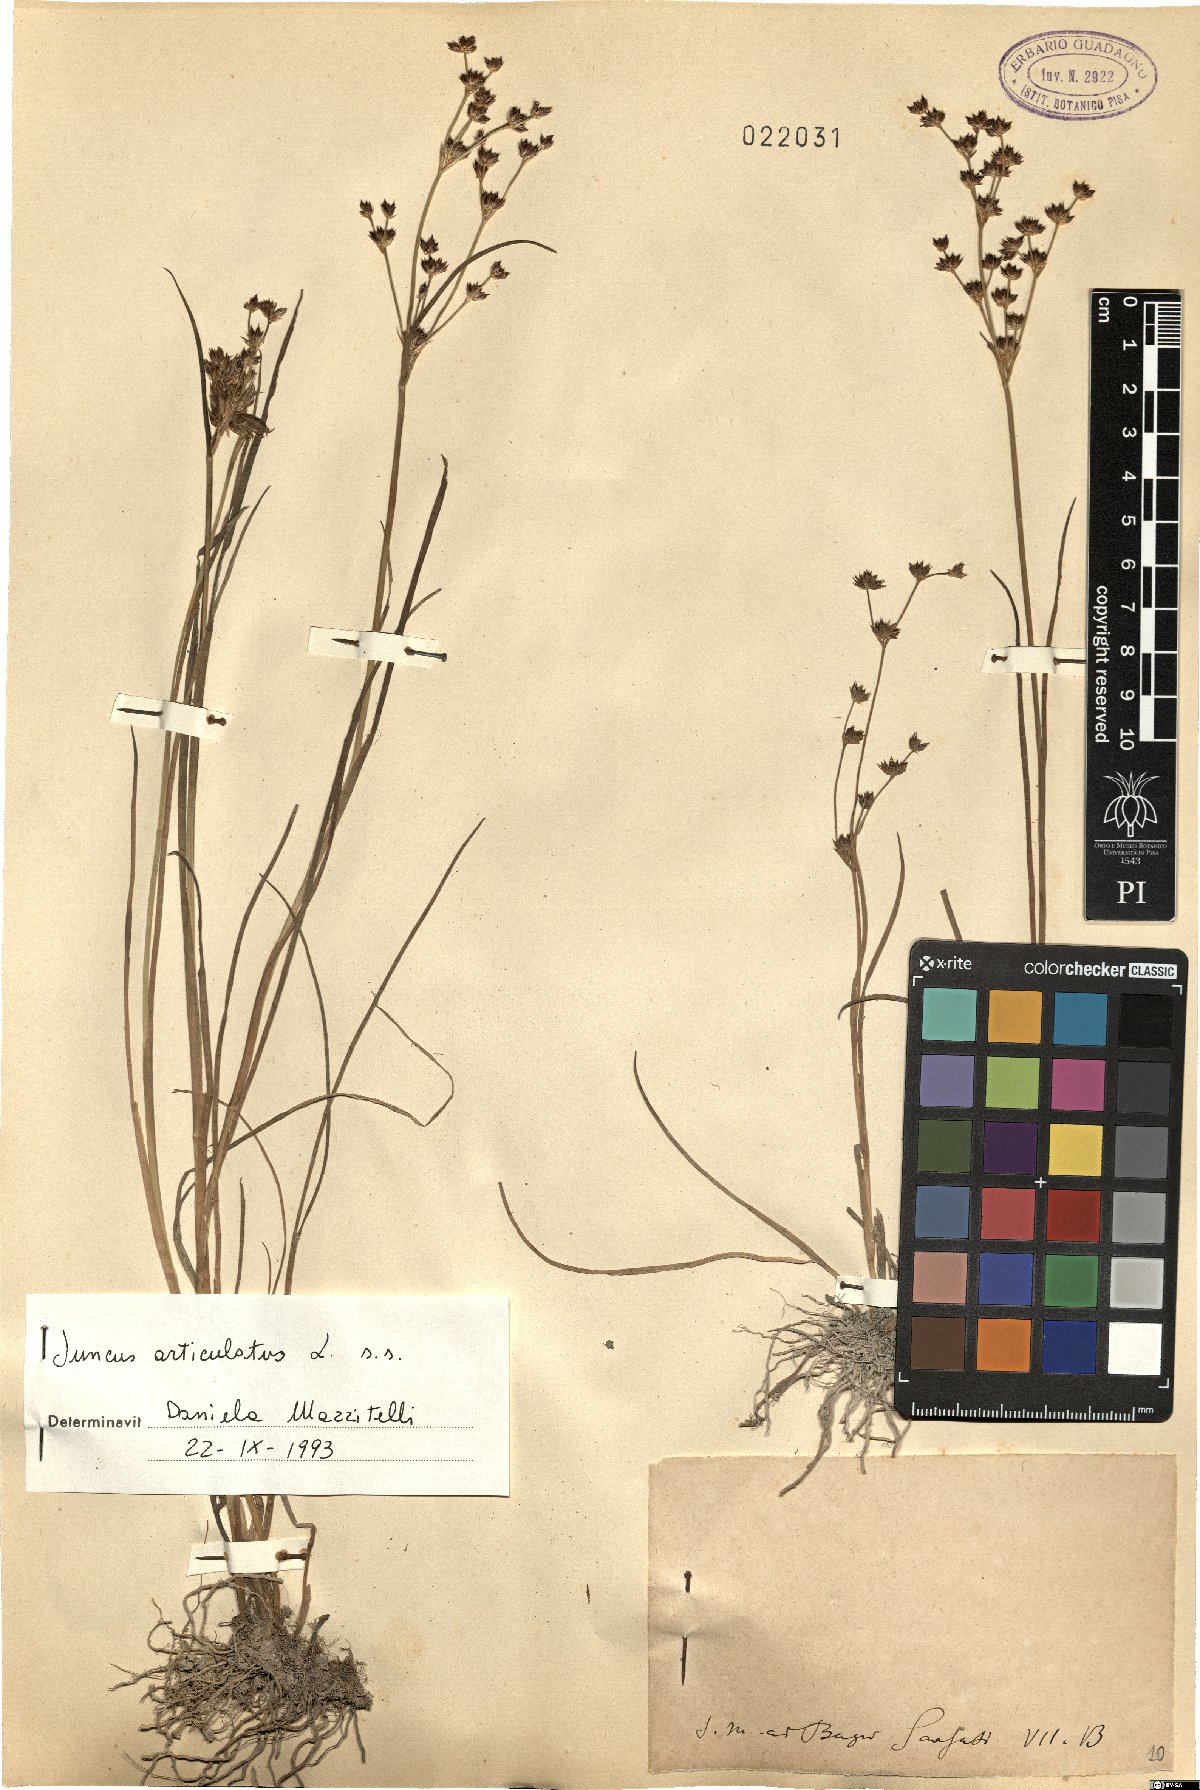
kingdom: Plantae
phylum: Tracheophyta
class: Liliopsida
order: Poales
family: Juncaceae
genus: Juncus
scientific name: Juncus articulatus
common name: Jointed rush
